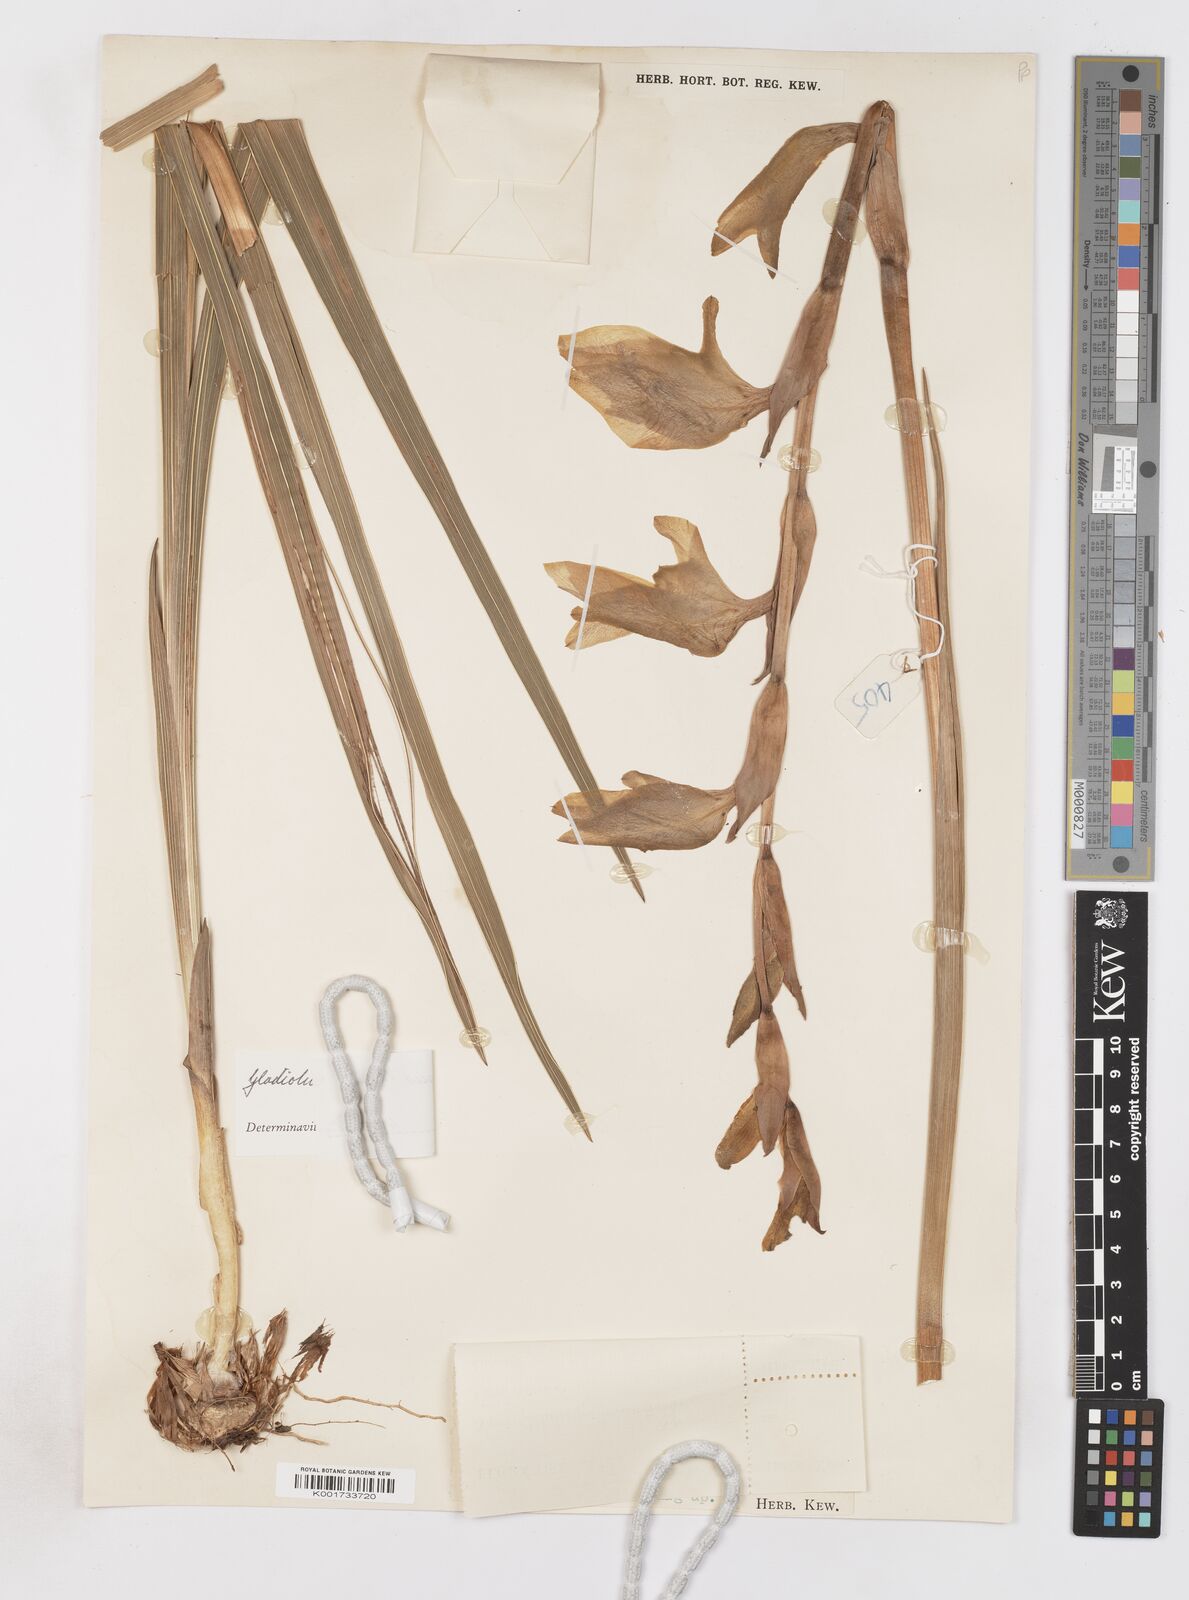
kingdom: Plantae
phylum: Tracheophyta
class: Liliopsida
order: Asparagales
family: Iridaceae
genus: Gladiolus
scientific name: Gladiolus dalenii
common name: Cornflag
